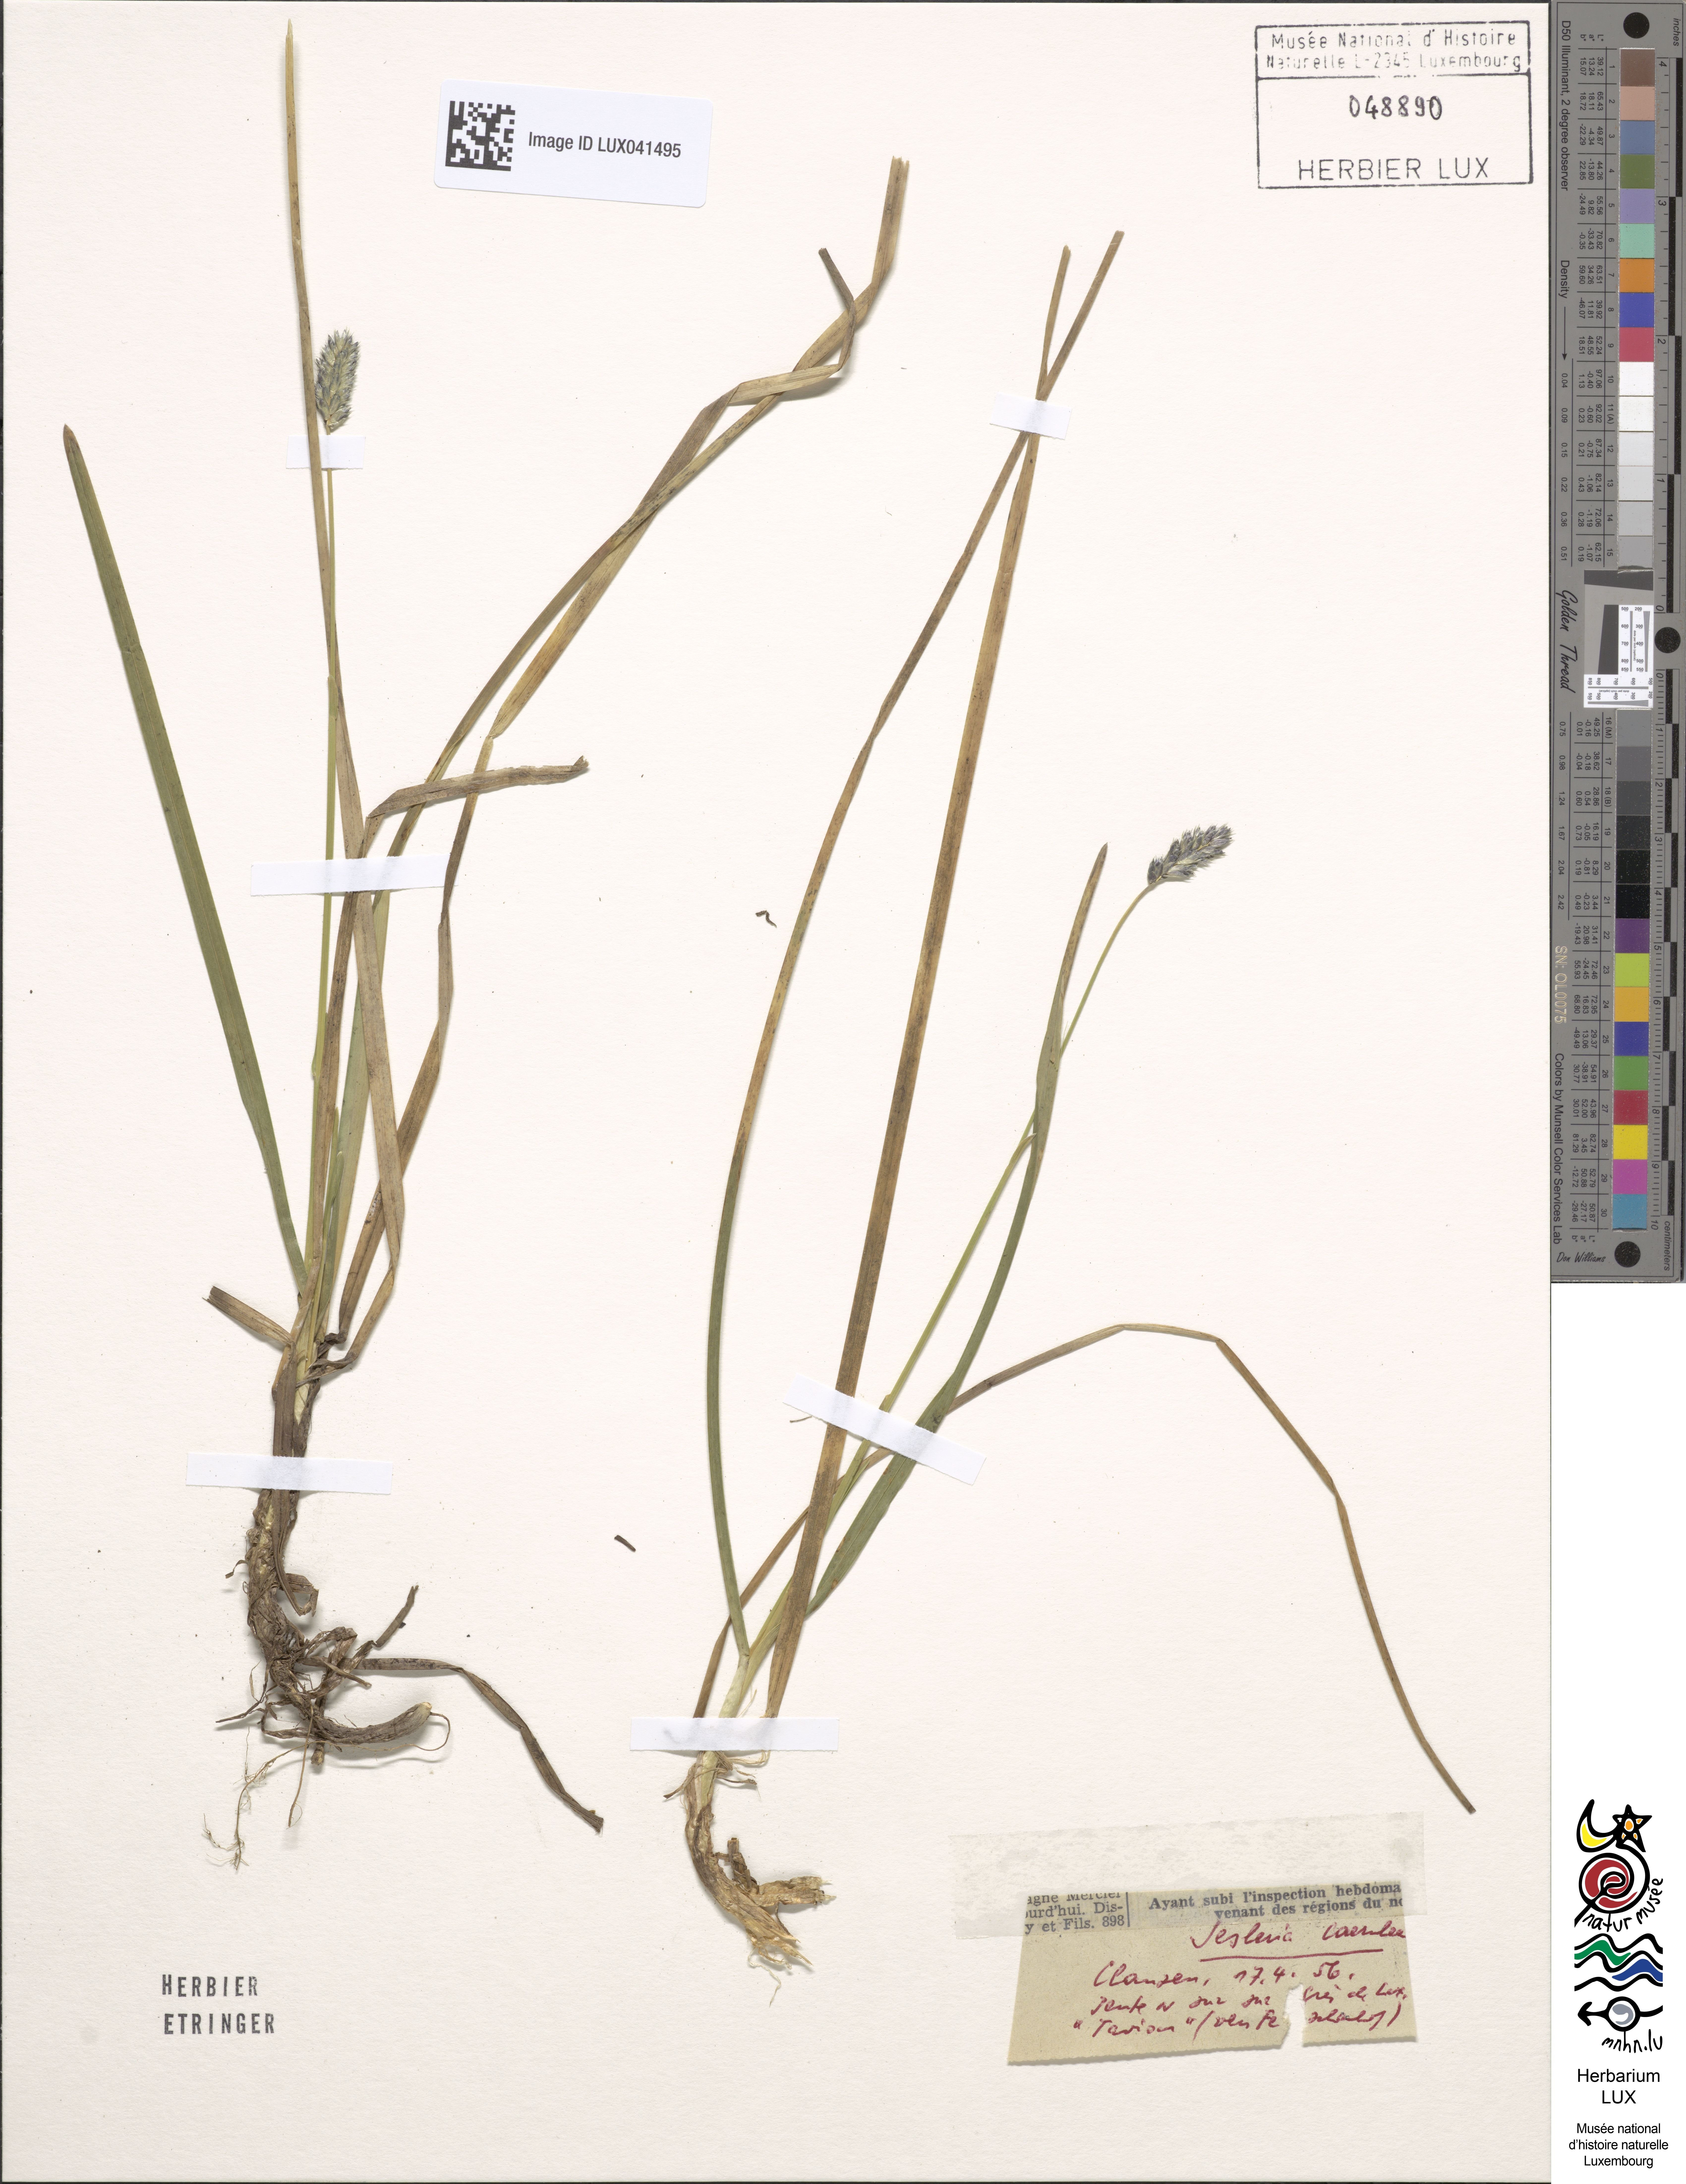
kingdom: Plantae
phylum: Tracheophyta
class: Liliopsida
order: Poales
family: Poaceae
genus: Sesleria
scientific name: Sesleria caerulea
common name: Blue moor-grass
